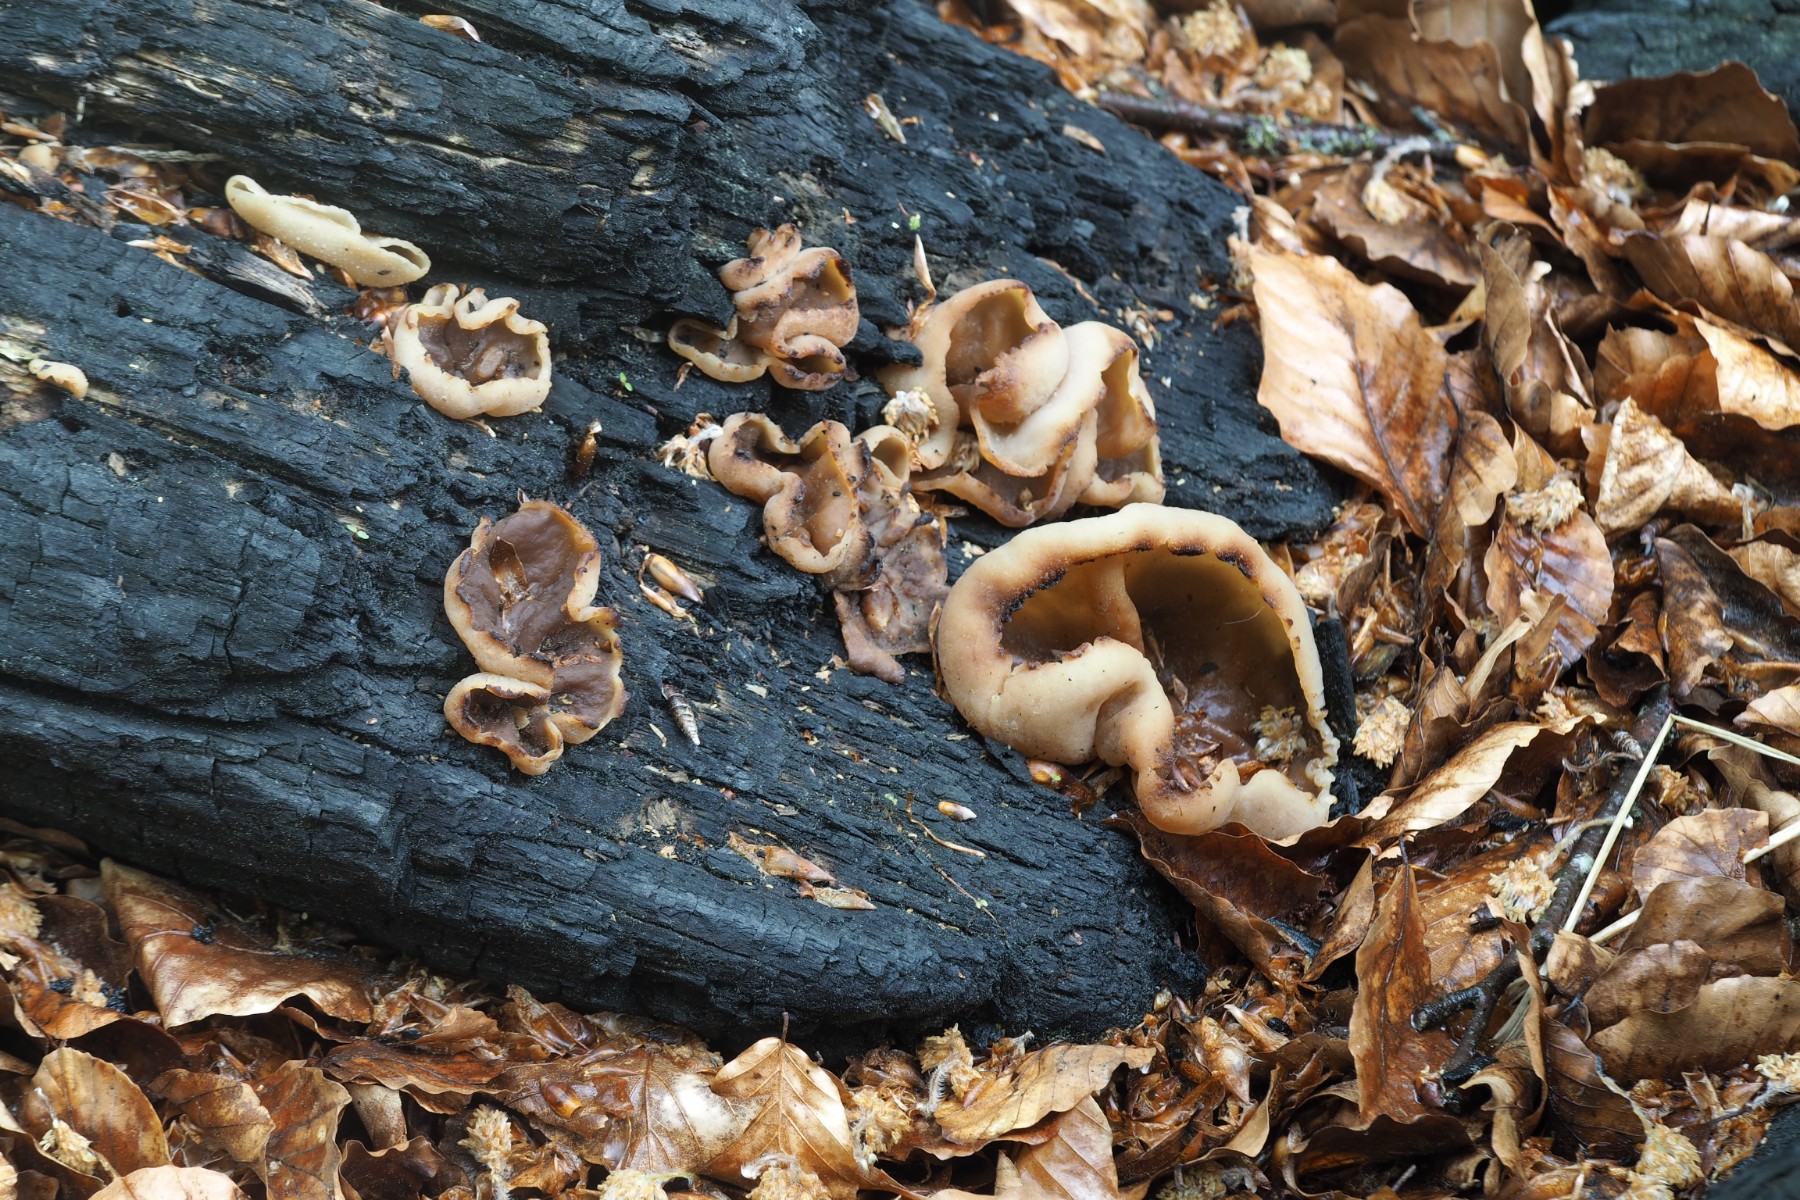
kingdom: Fungi
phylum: Ascomycota
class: Pezizomycetes
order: Pezizales
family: Pezizaceae
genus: Peziza
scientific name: Peziza varia
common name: Ved-bægersvamp
